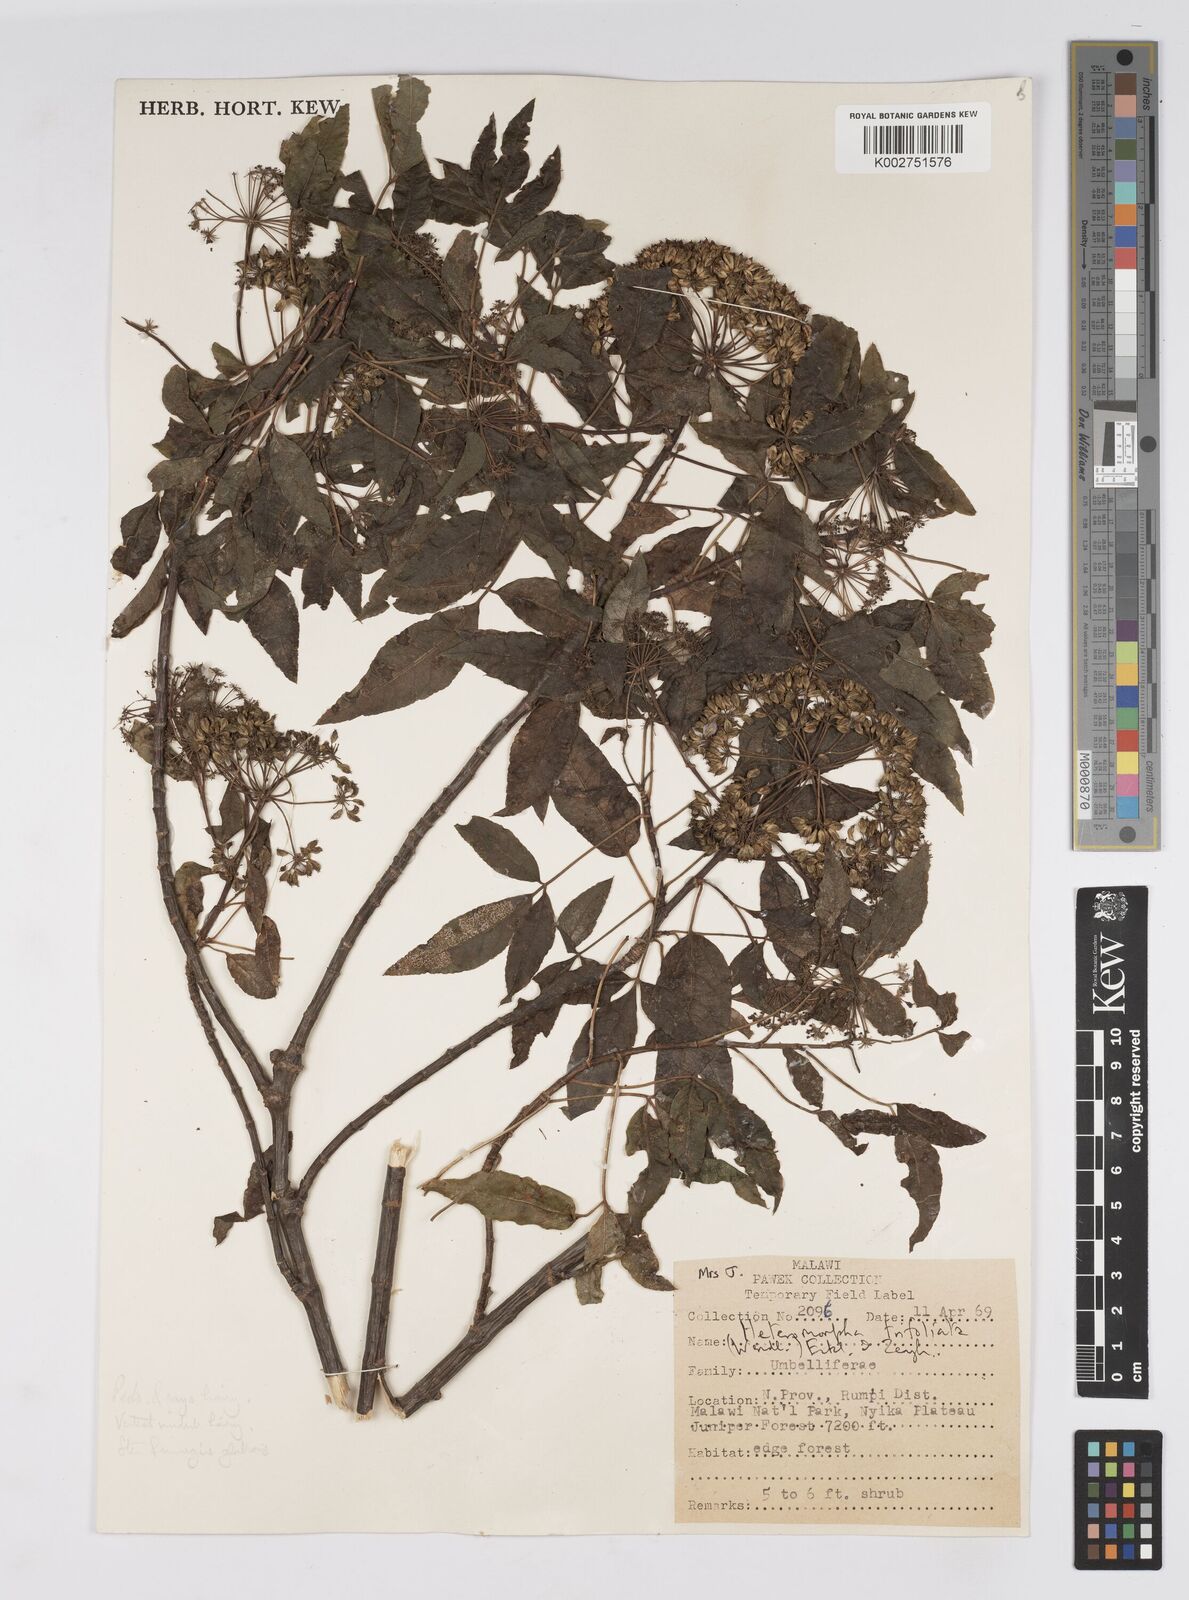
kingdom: Plantae
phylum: Tracheophyta
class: Magnoliopsida
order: Apiales
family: Apiaceae
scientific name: Apiaceae
